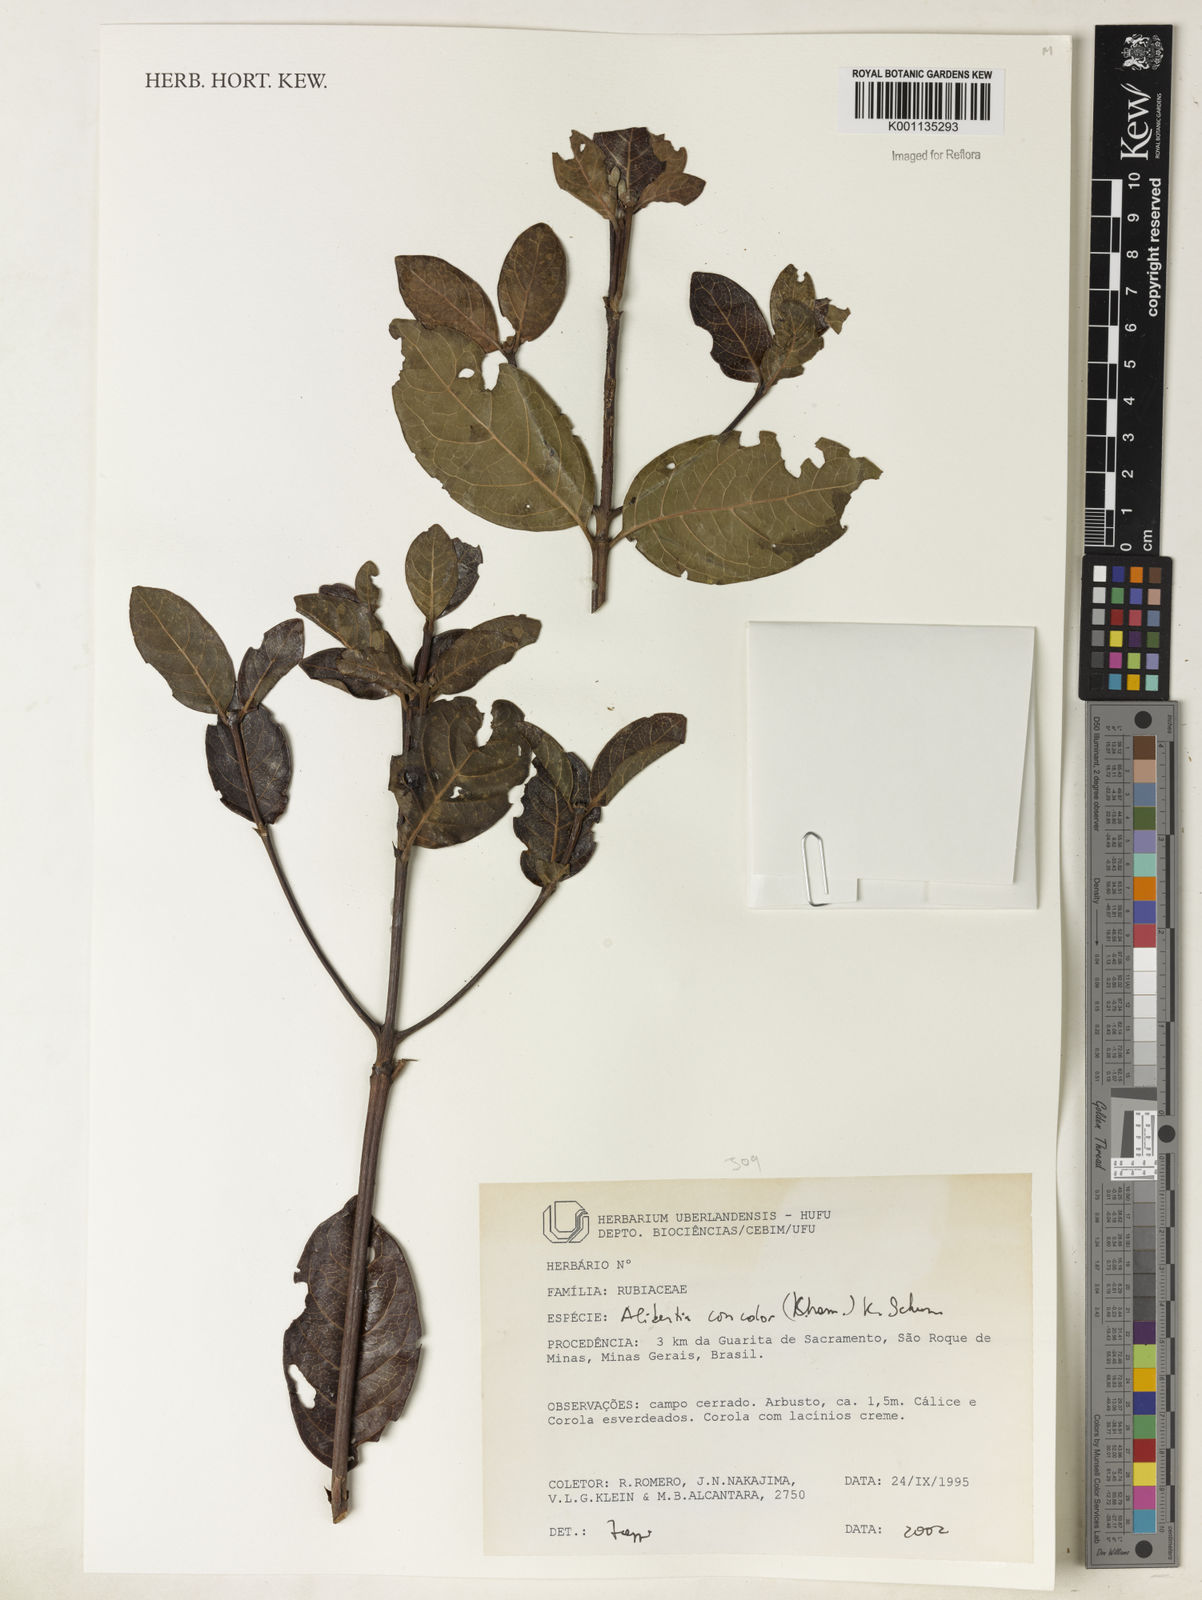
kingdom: Plantae
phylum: Tracheophyta
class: Magnoliopsida
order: Gentianales
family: Rubiaceae
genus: Cordiera
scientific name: Cordiera concolor
